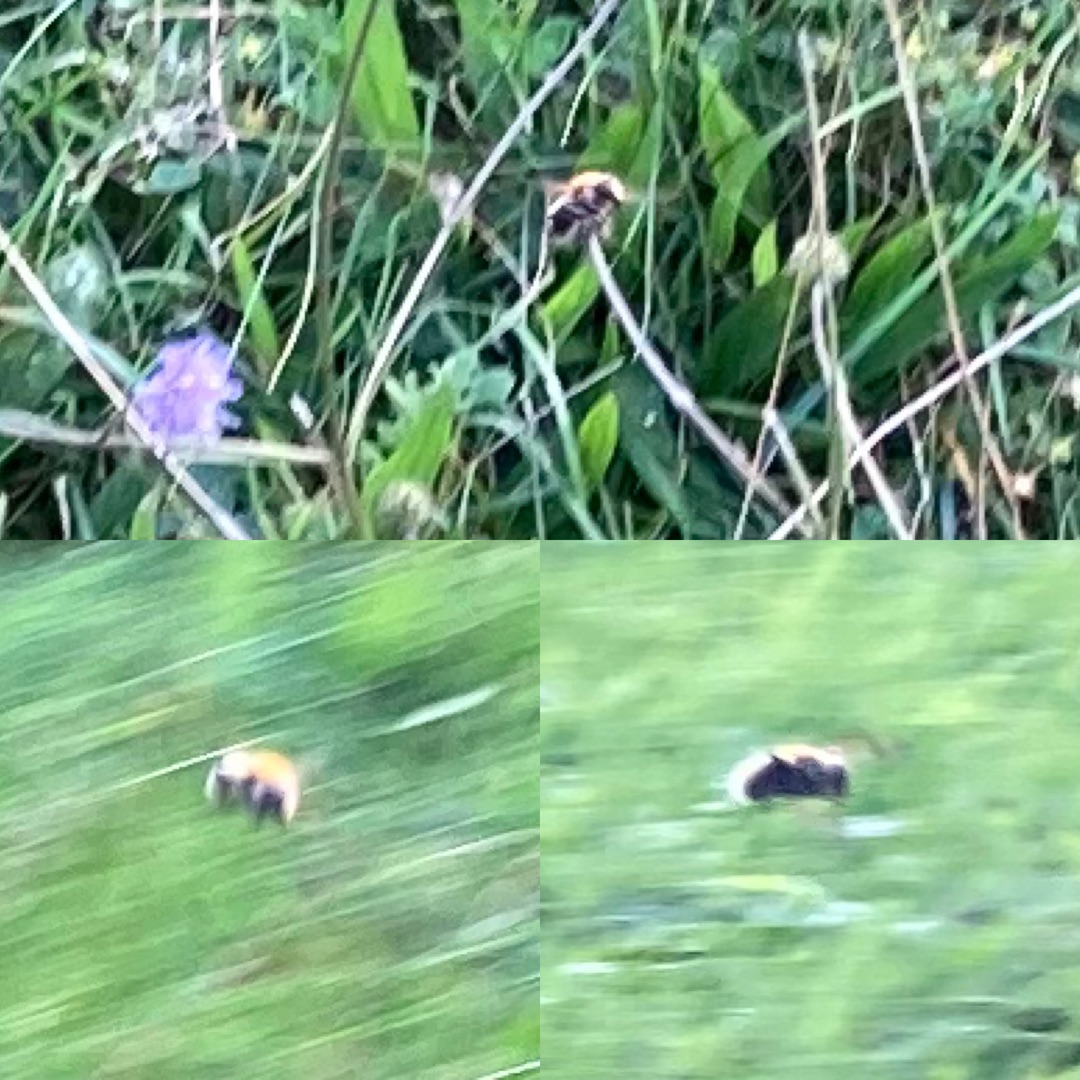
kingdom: Animalia
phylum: Arthropoda
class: Insecta
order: Diptera
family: Syrphidae
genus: Sericomyia
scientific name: Sericomyia superbiens
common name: Brun bjørnesvirreflue
